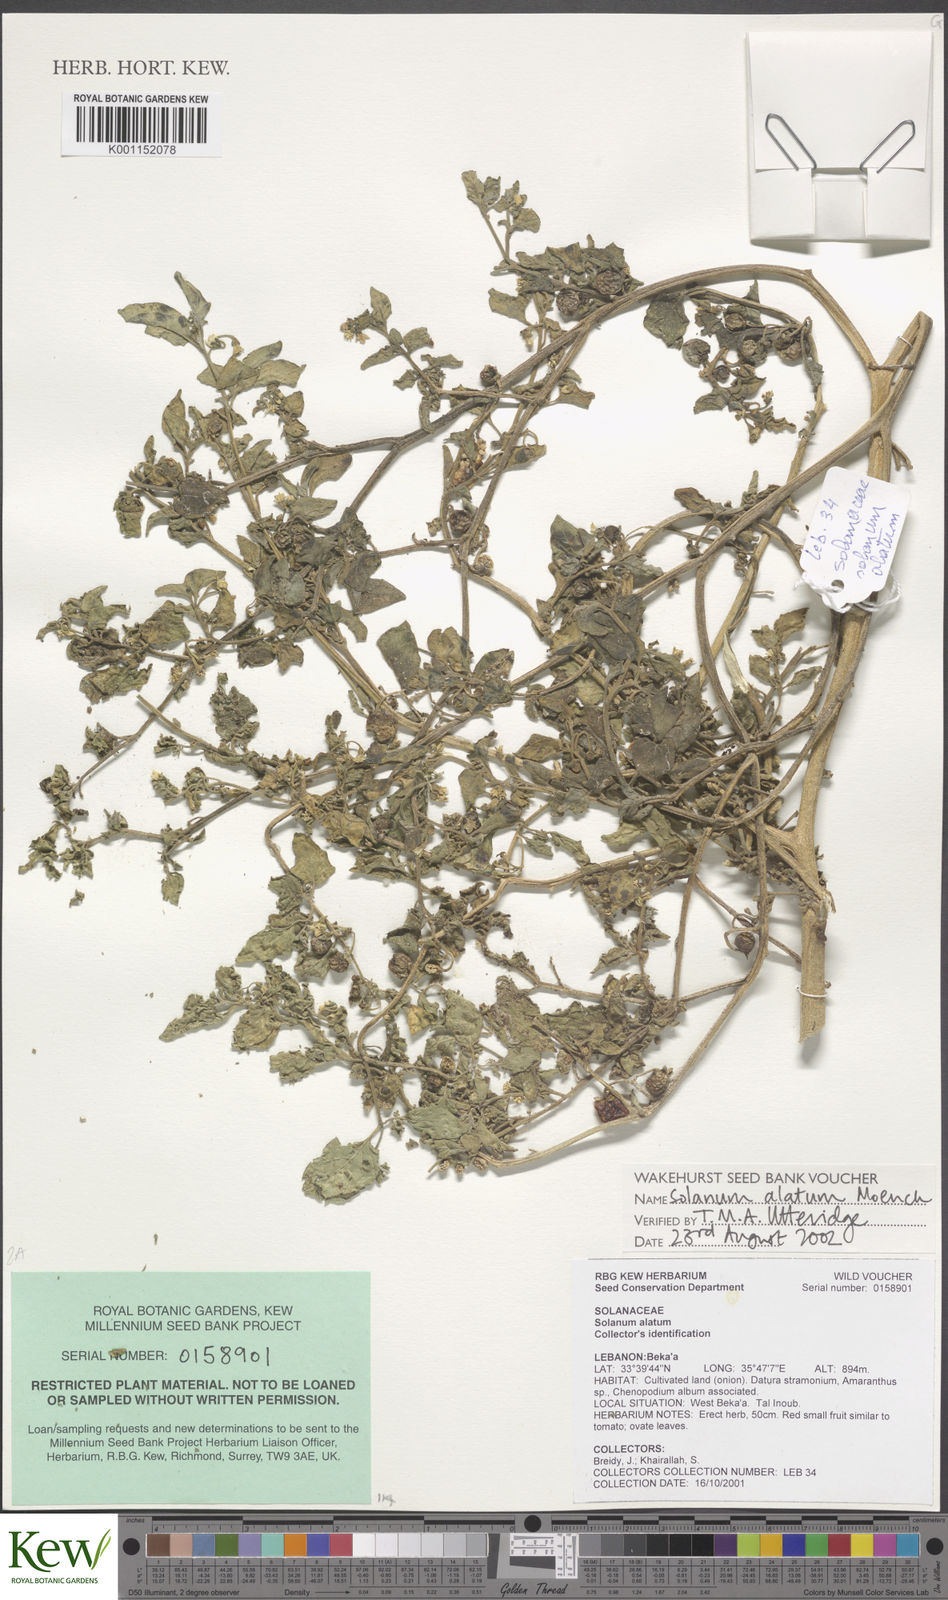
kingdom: Plantae
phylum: Tracheophyta
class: Magnoliopsida
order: Solanales
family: Solanaceae
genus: Solanum
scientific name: Solanum
